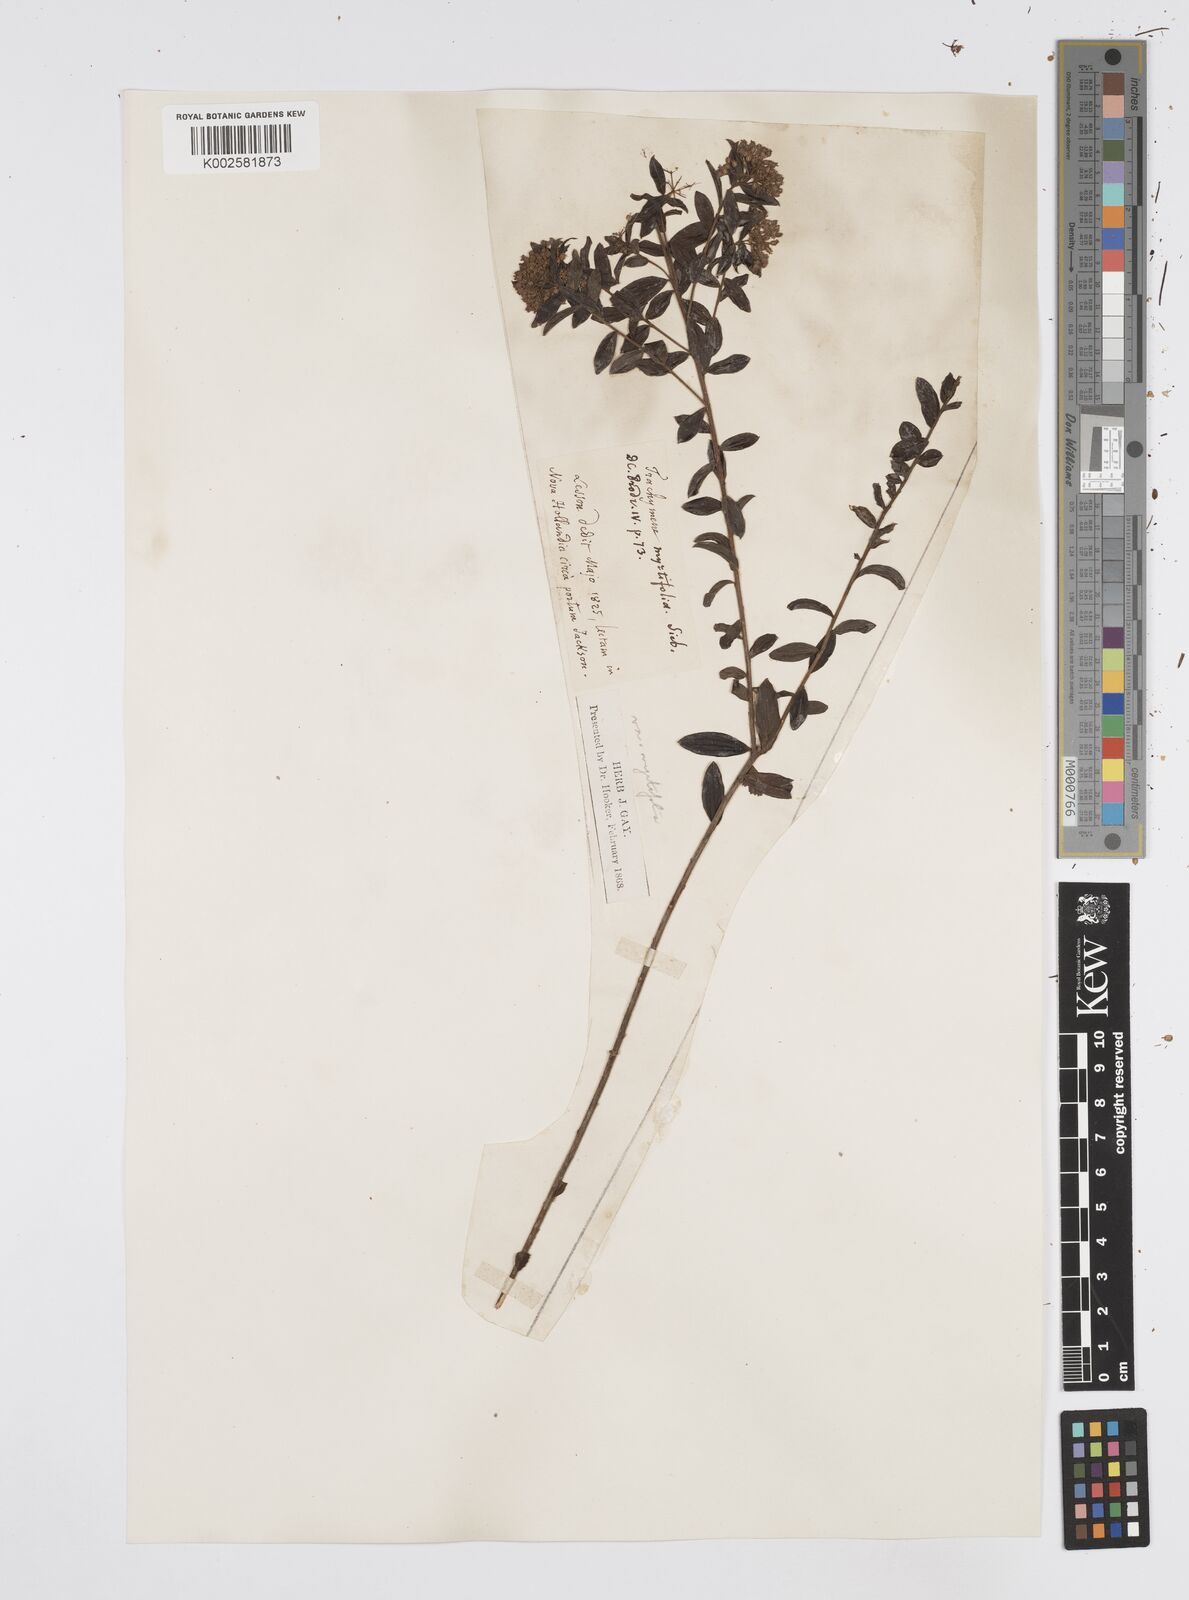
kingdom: Plantae
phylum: Tracheophyta
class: Magnoliopsida
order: Apiales
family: Apiaceae
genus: Platysace
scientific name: Platysace lanceolata
